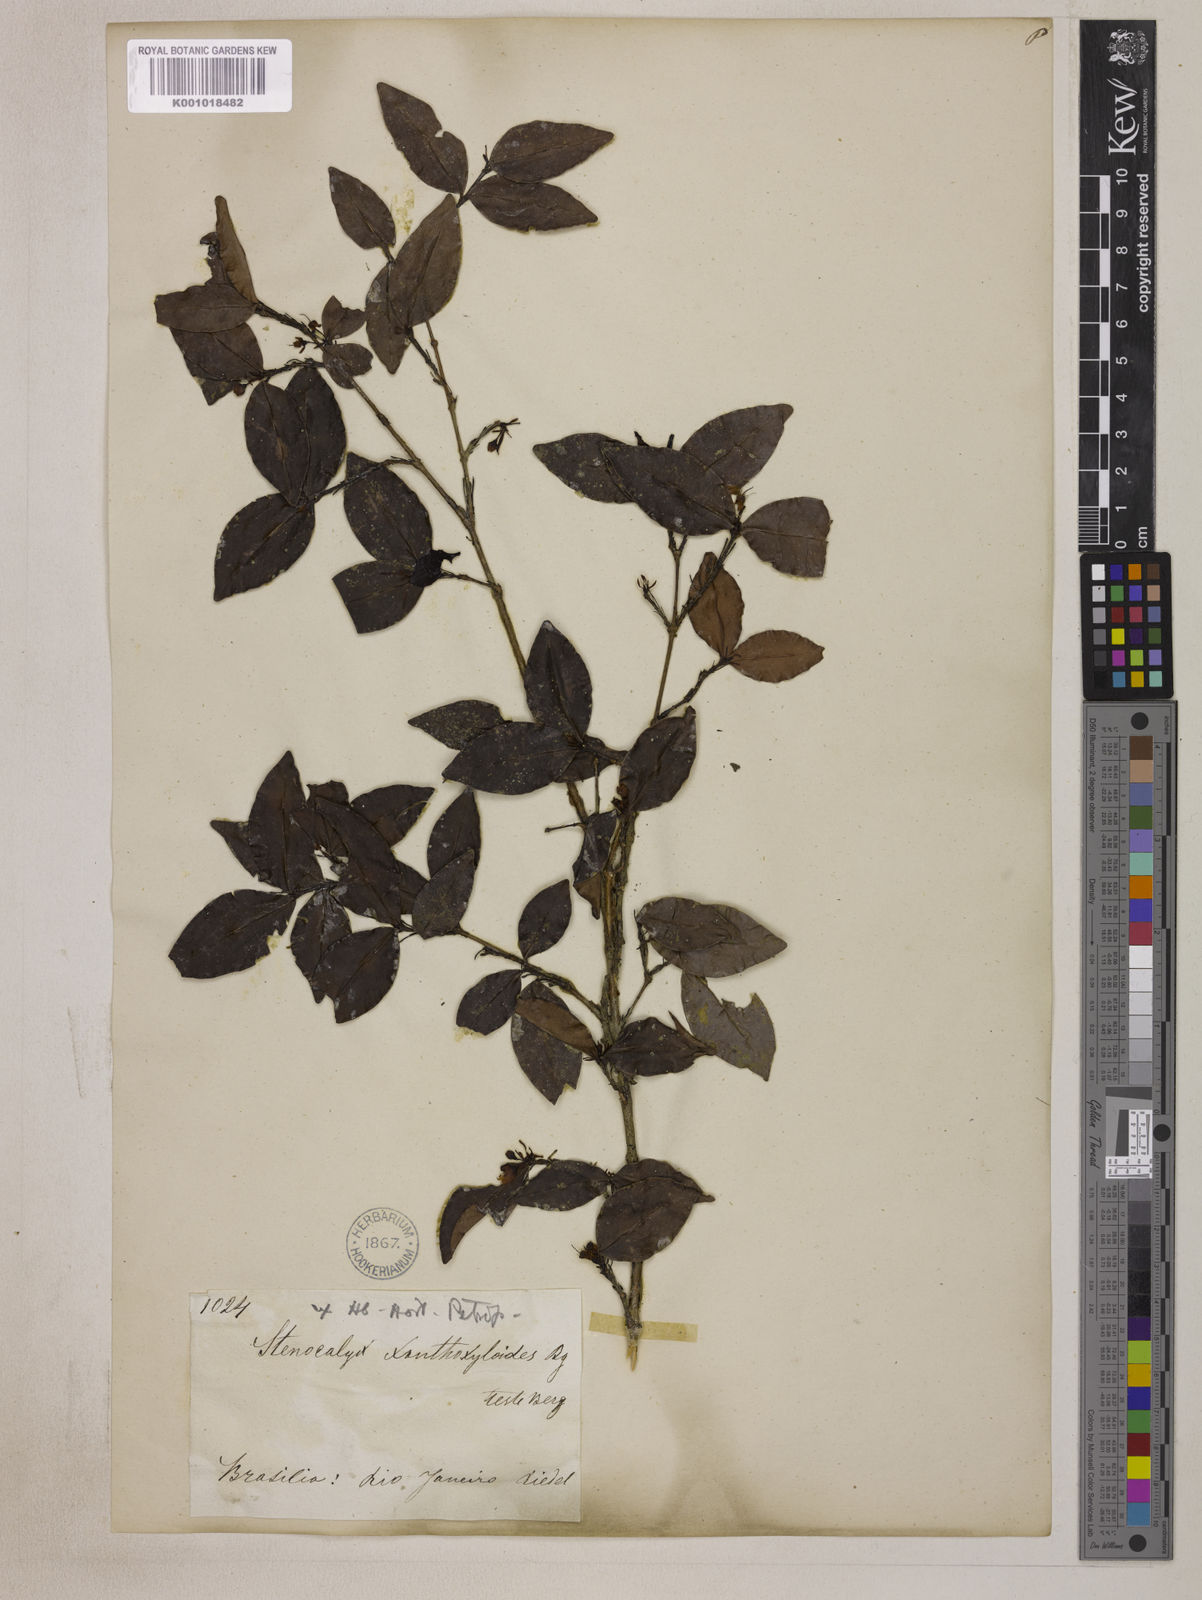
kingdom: Plantae
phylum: Tracheophyta
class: Magnoliopsida
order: Myrtales
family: Myrtaceae
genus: Eugenia
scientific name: Eugenia xanthoxyloides
